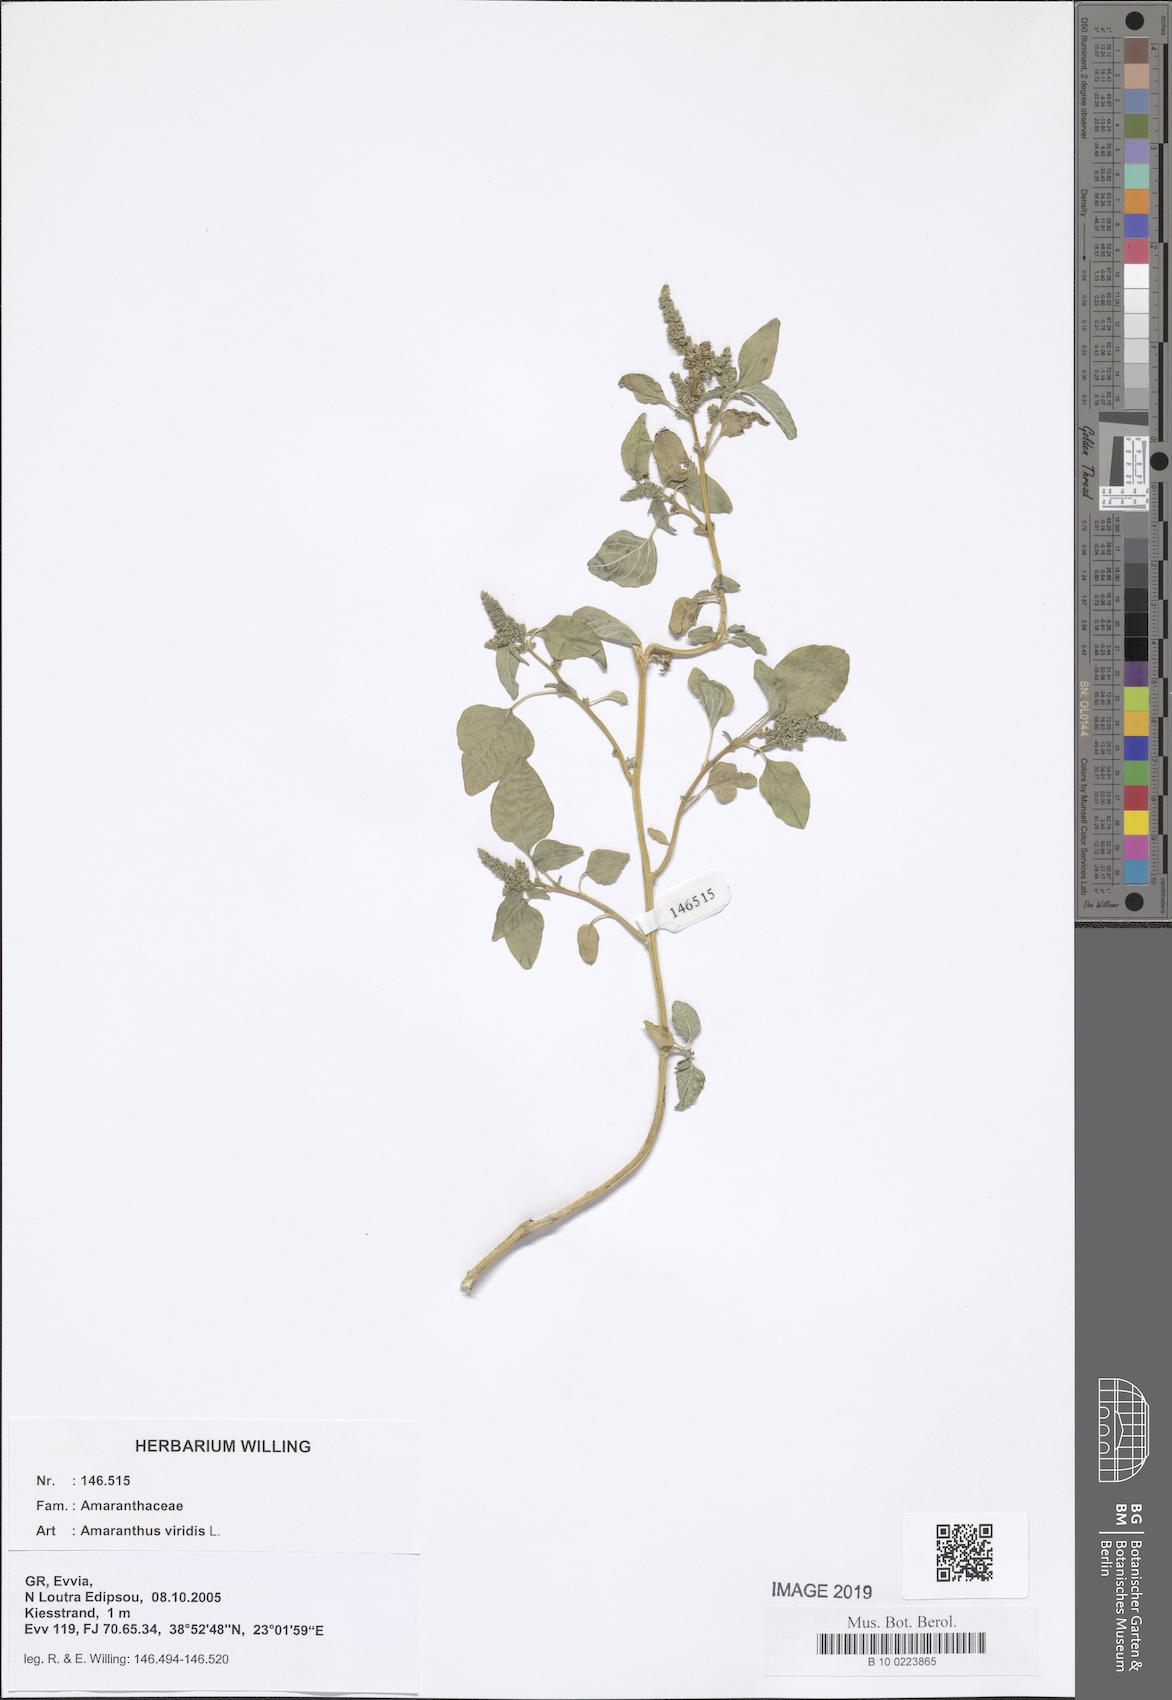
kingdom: Plantae
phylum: Tracheophyta
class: Magnoliopsida
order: Caryophyllales
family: Amaranthaceae
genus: Amaranthus
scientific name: Amaranthus viridis
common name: Slender amaranth
